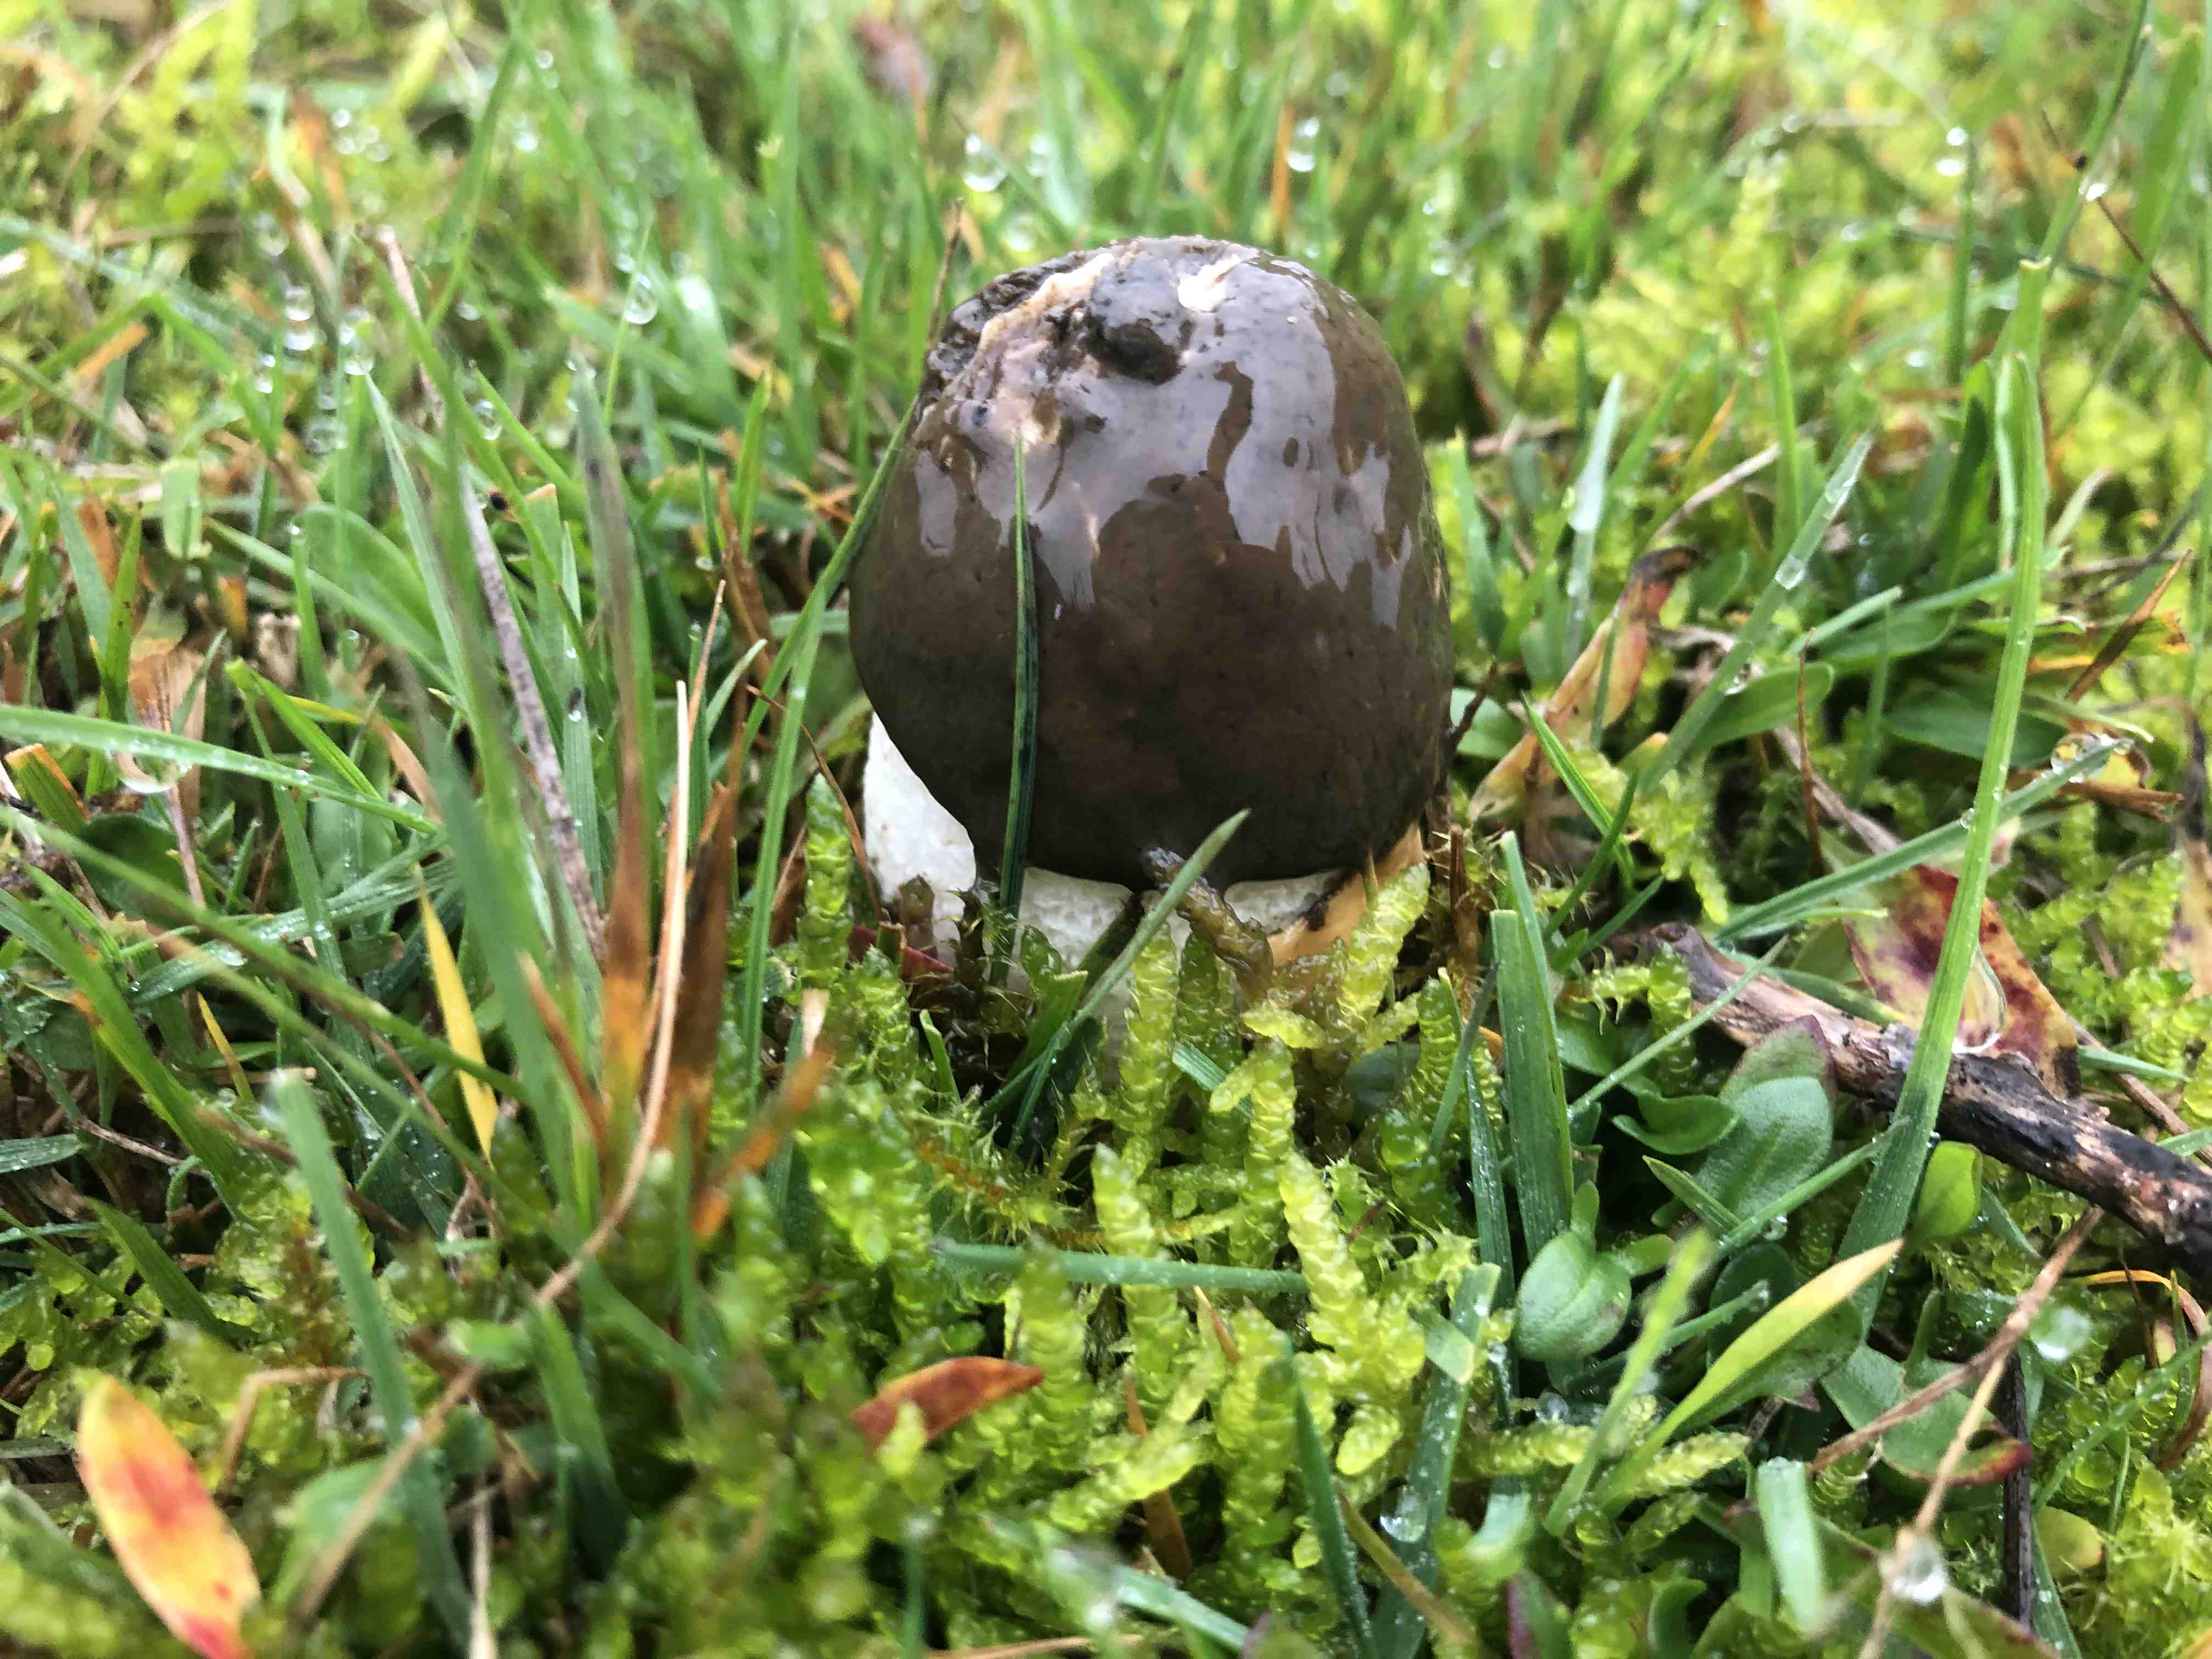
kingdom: Fungi
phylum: Basidiomycota
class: Agaricomycetes
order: Phallales
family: Phallaceae
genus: Phallus
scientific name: Phallus impudicus
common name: almindelig stinksvamp
